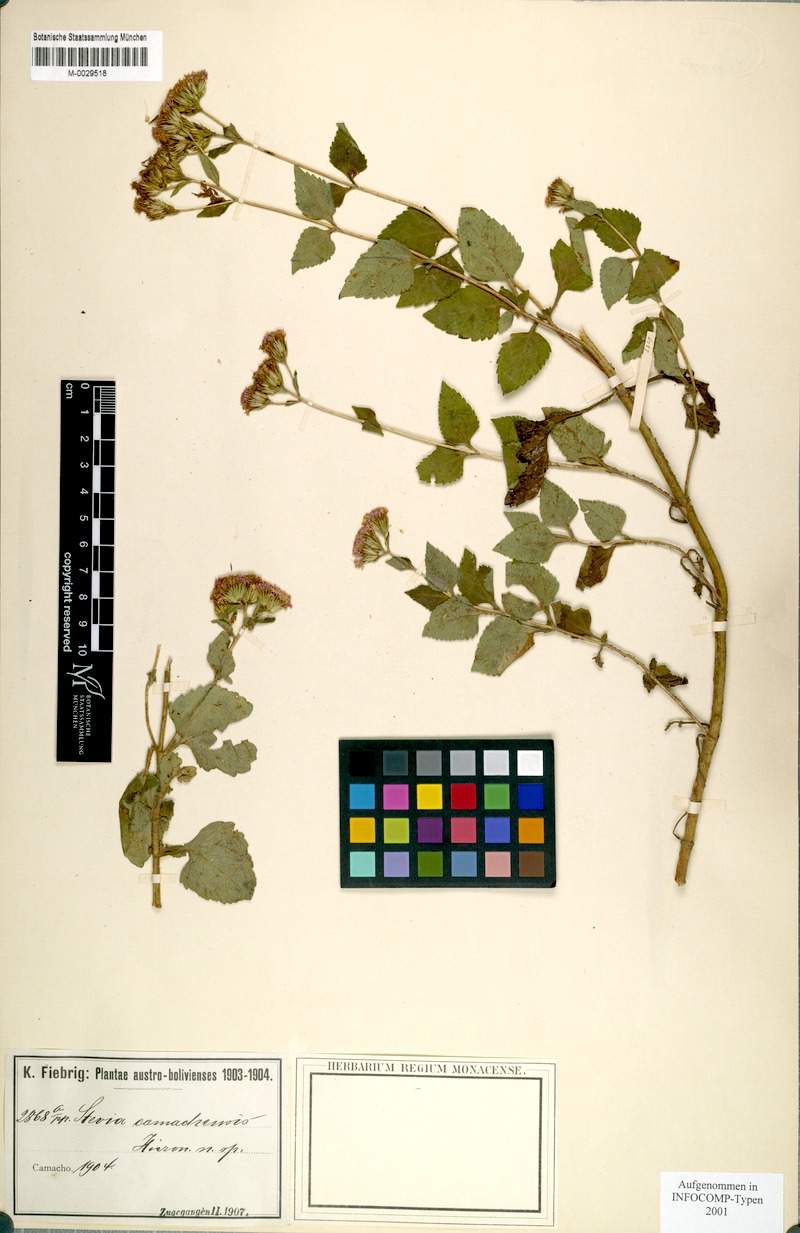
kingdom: Plantae
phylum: Tracheophyta
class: Magnoliopsida
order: Asterales
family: Asteraceae
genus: Stevia
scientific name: Stevia camachensis
